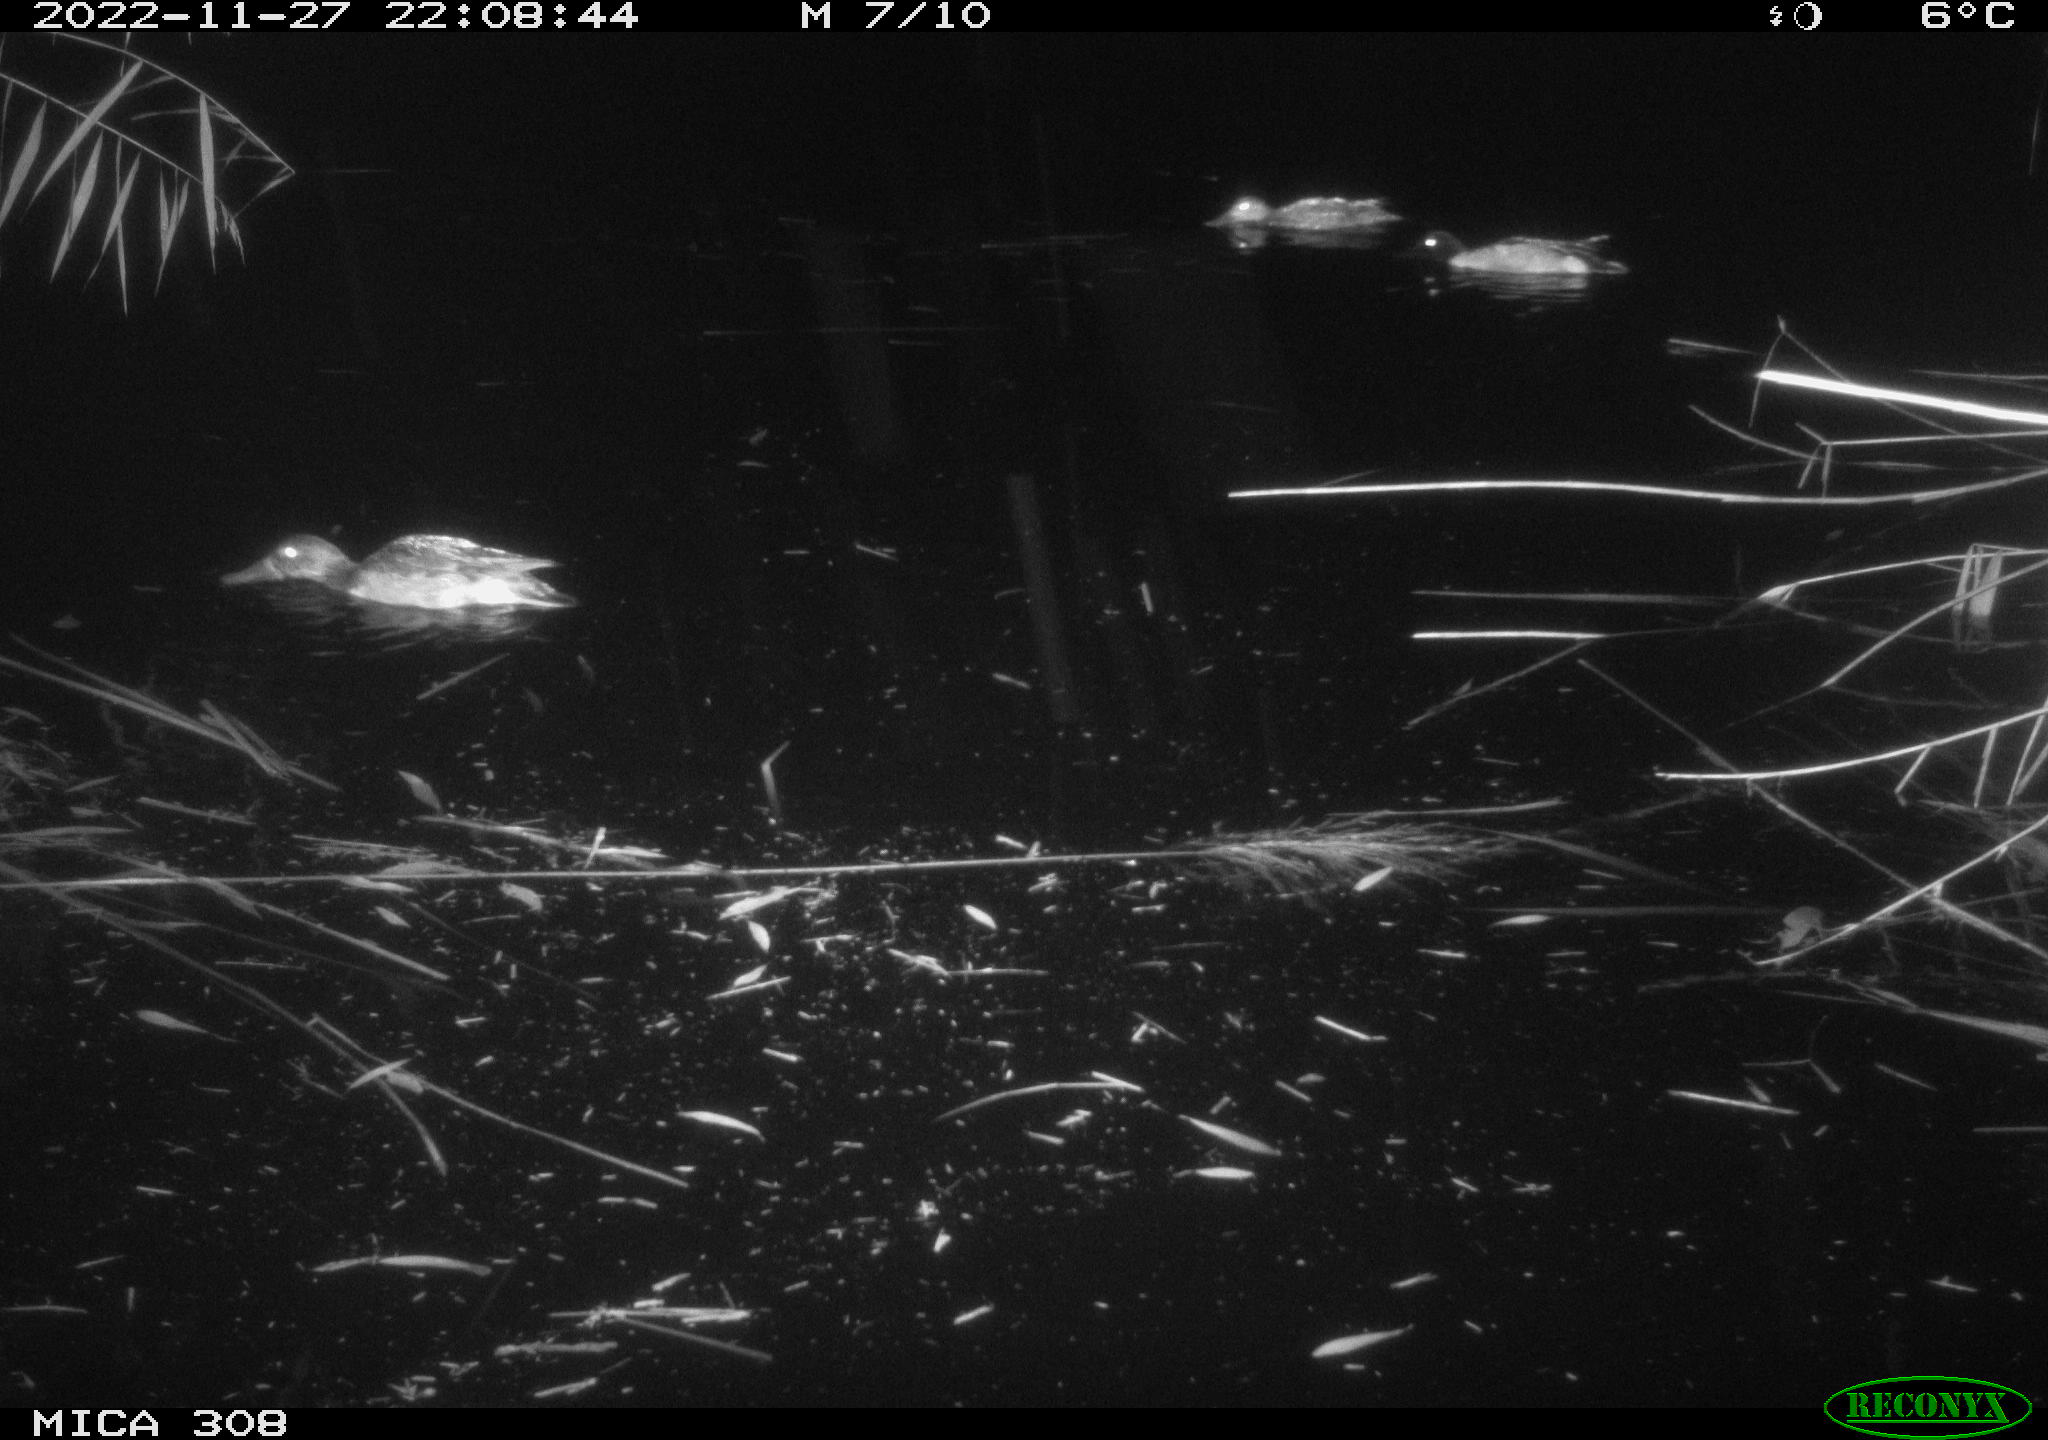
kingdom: Animalia
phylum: Chordata
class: Aves
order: Anseriformes
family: Anatidae
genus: Anas
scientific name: Anas
